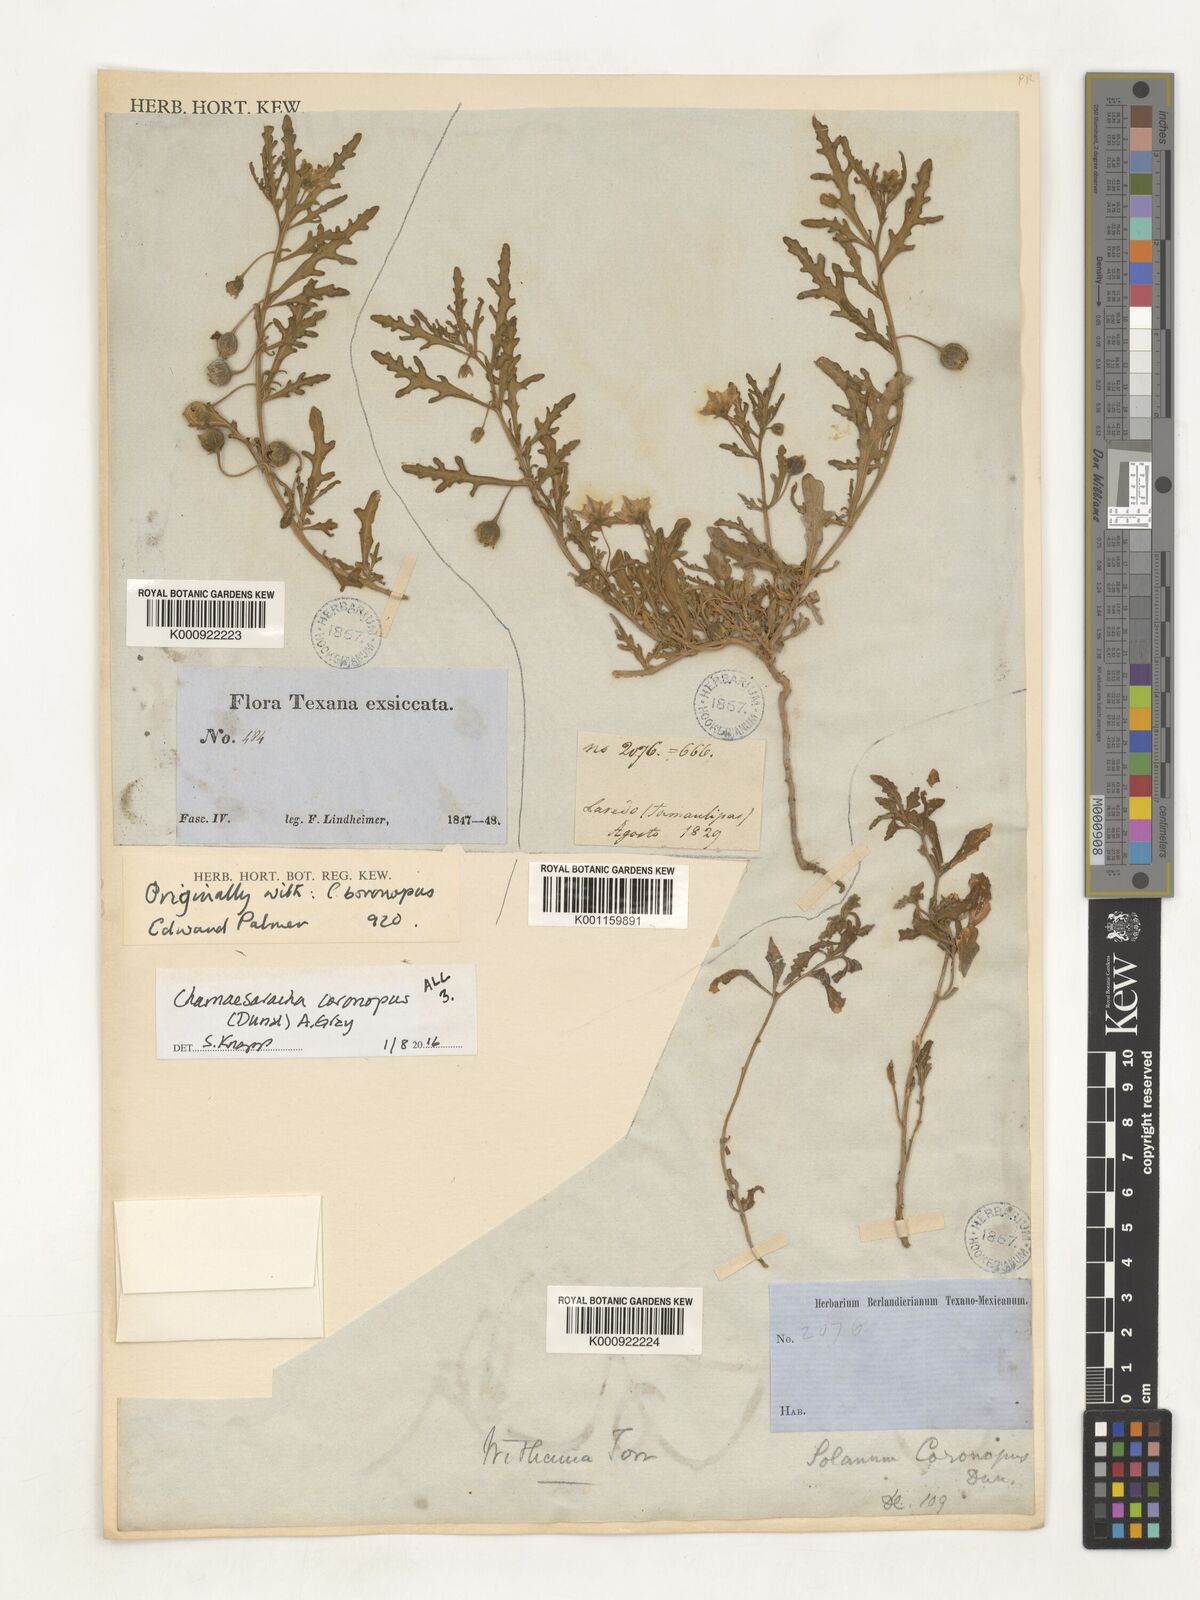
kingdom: Plantae
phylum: Tracheophyta
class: Magnoliopsida
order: Solanales
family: Solanaceae
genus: Chamaesaracha
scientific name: Chamaesaracha coronopus
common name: Smooth chamaesaracha
